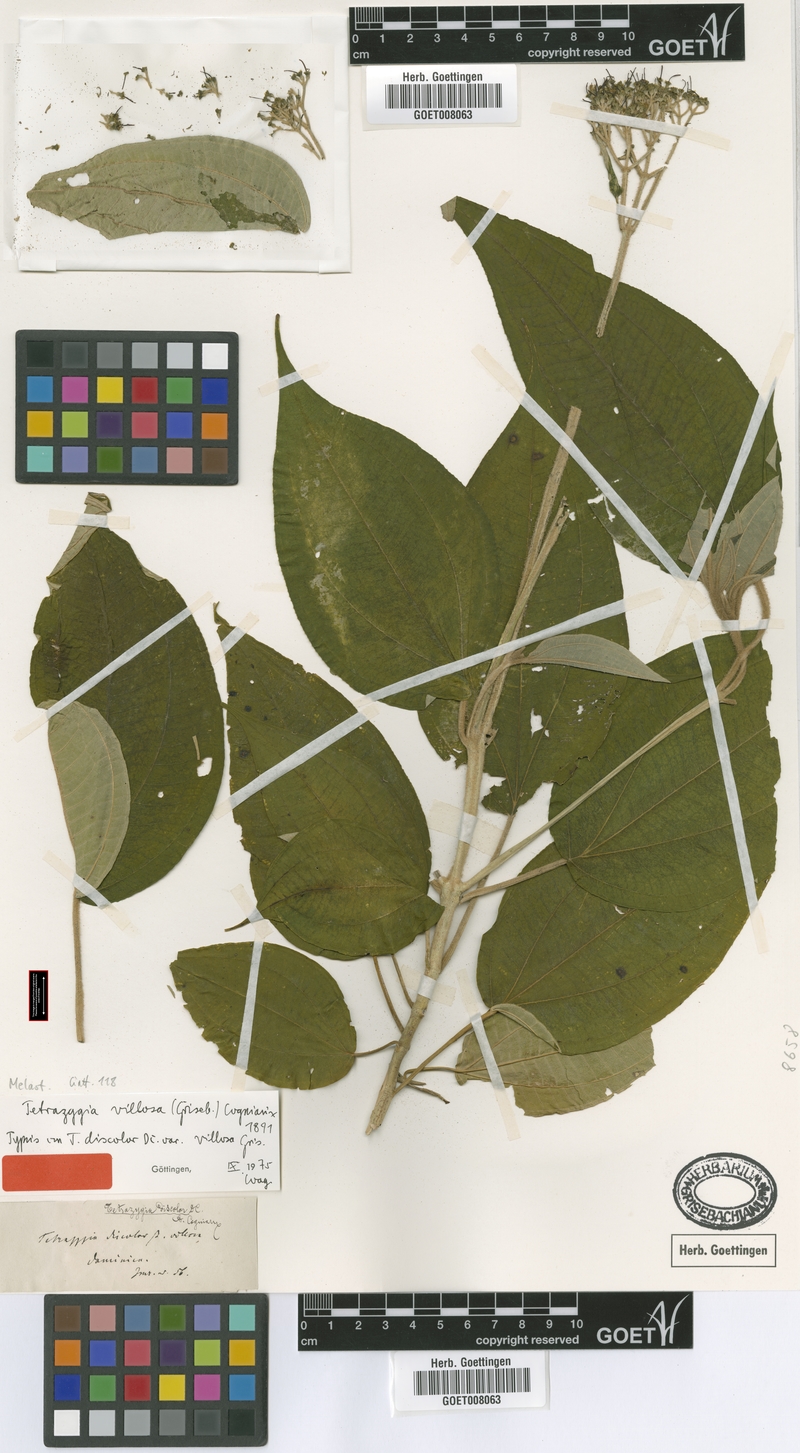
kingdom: Plantae
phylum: Tracheophyta
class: Magnoliopsida
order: Myrtales
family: Melastomataceae
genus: Miconia
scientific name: Miconia christophoriana
